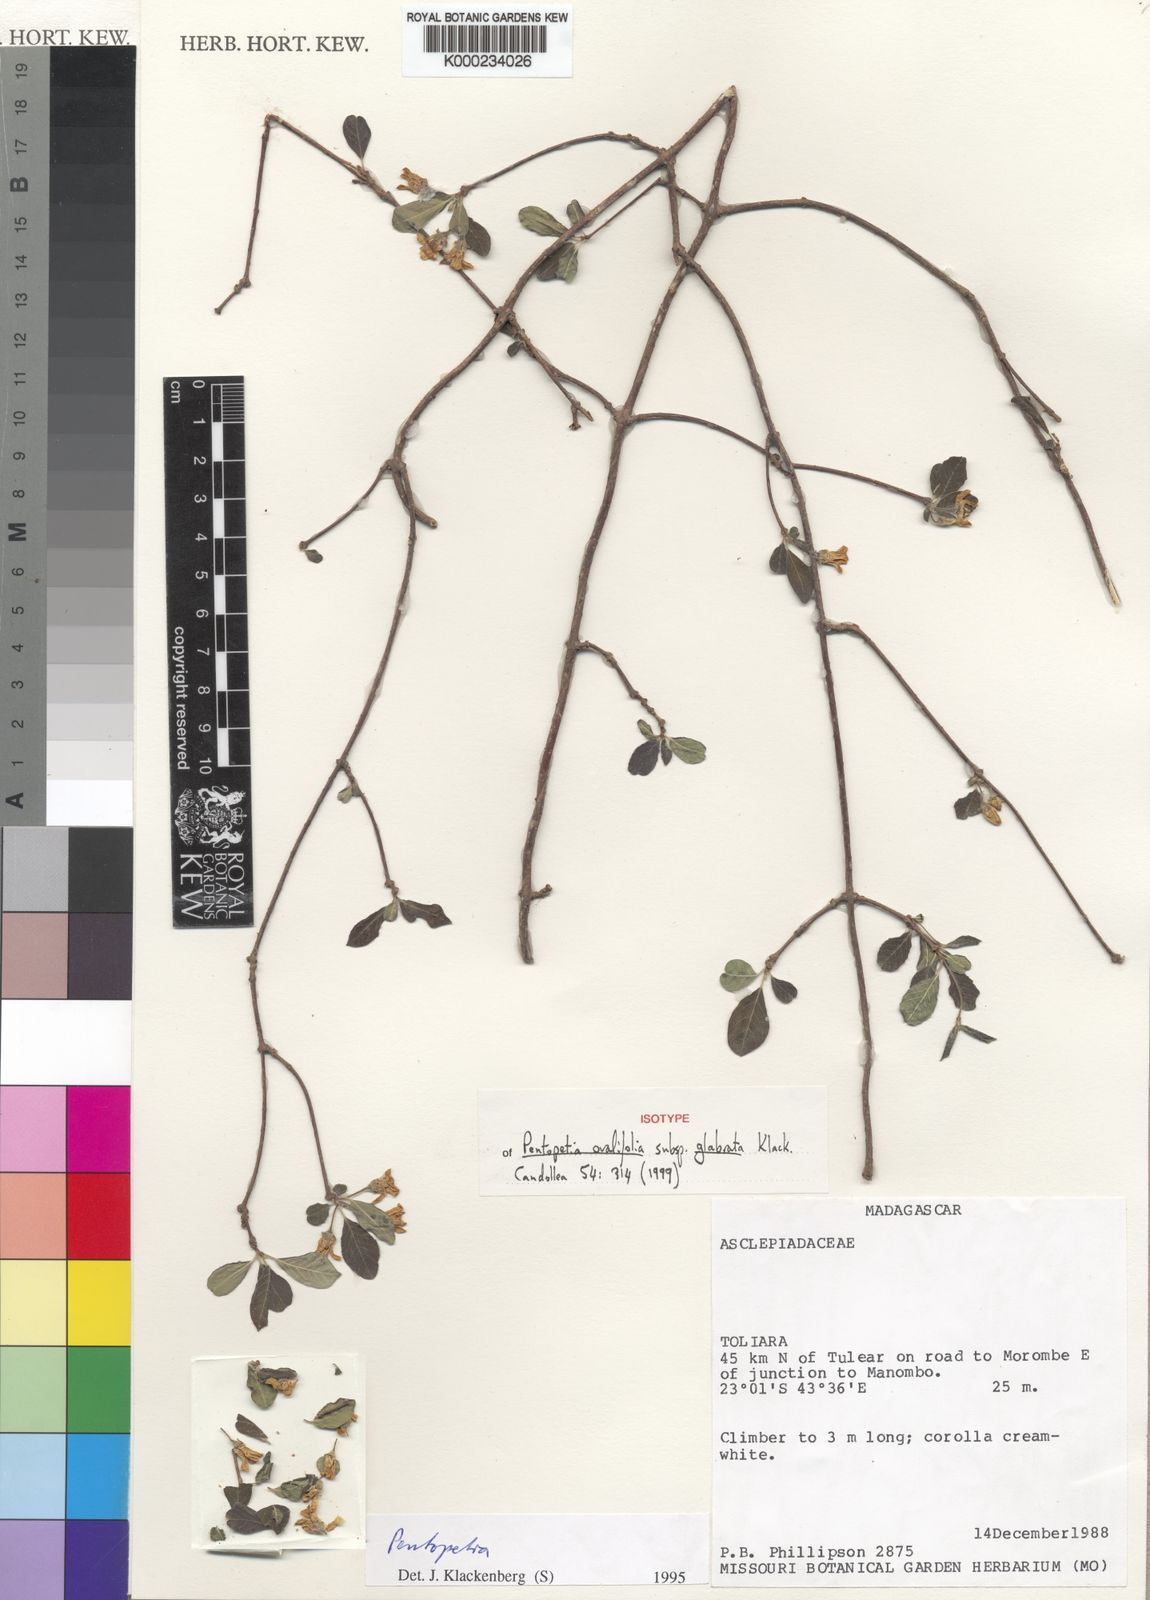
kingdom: Plantae
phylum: Tracheophyta
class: Magnoliopsida
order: Gentianales
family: Apocynaceae
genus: Pentopetia
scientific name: Pentopetia ovalifolia
